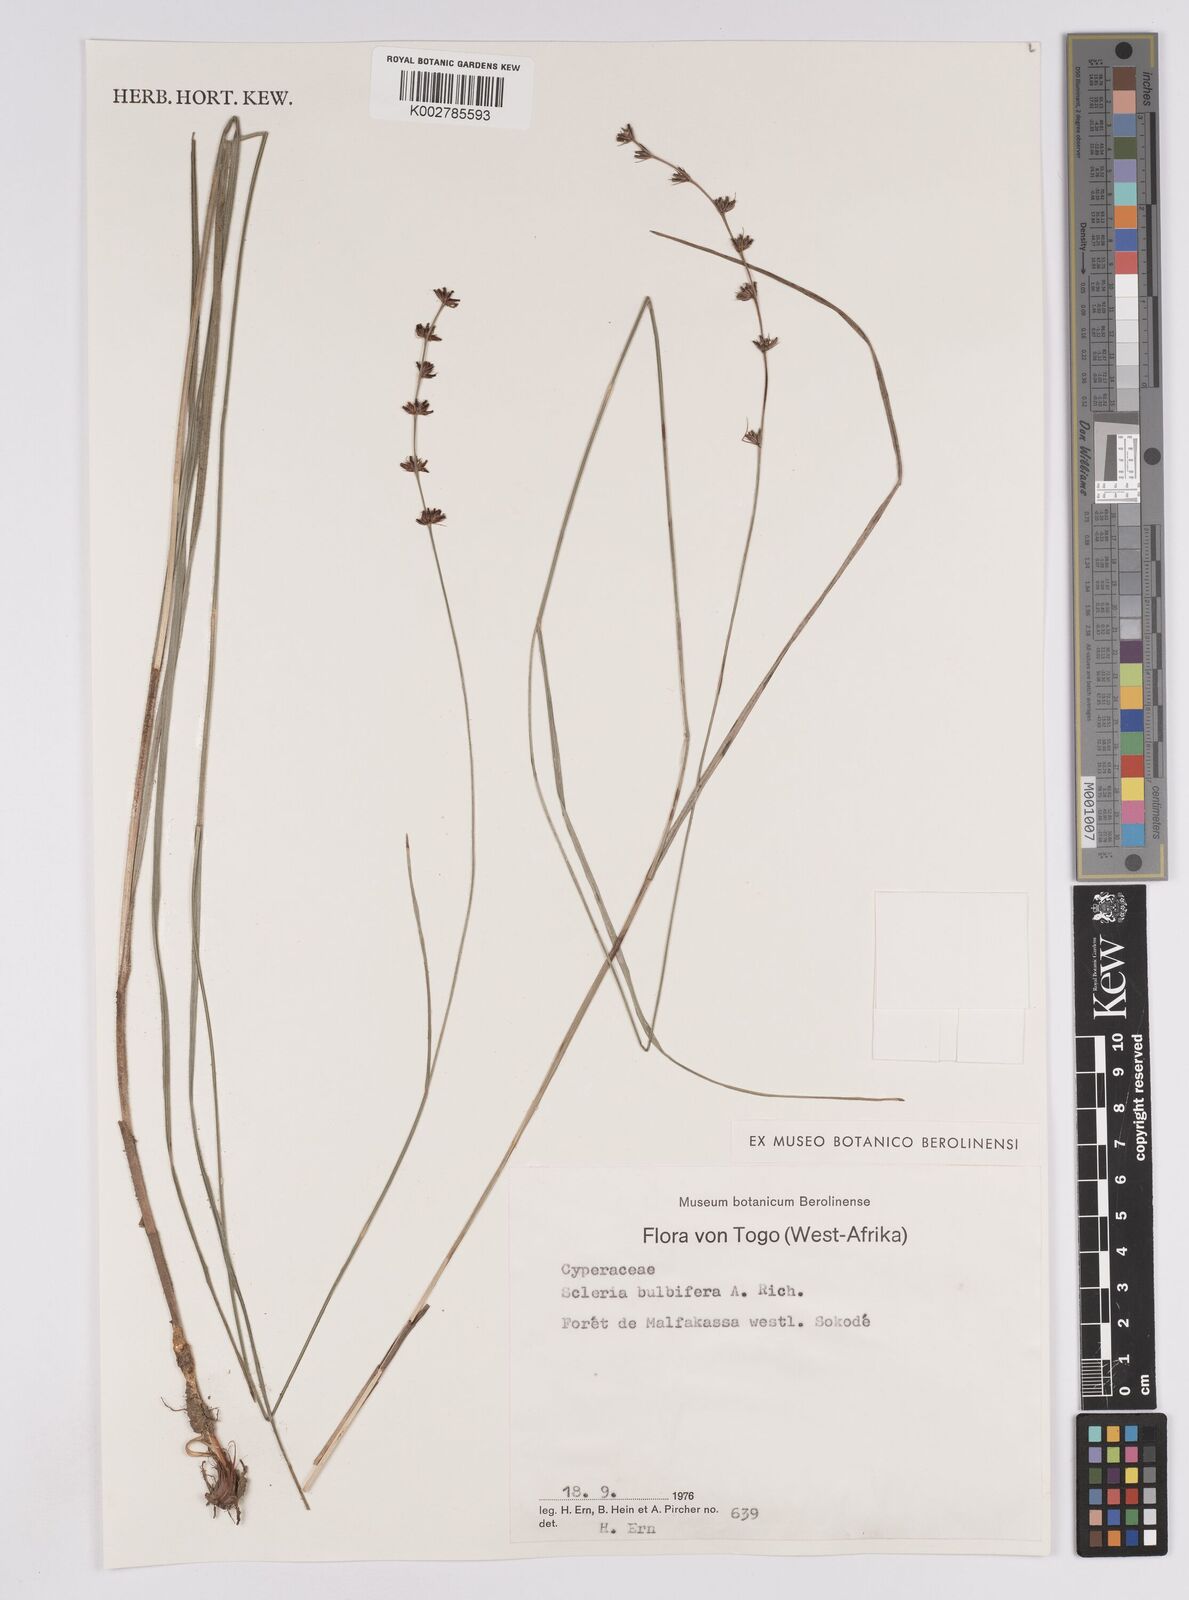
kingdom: Plantae
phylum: Tracheophyta
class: Liliopsida
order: Poales
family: Cyperaceae
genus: Scleria
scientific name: Scleria bulbifera
